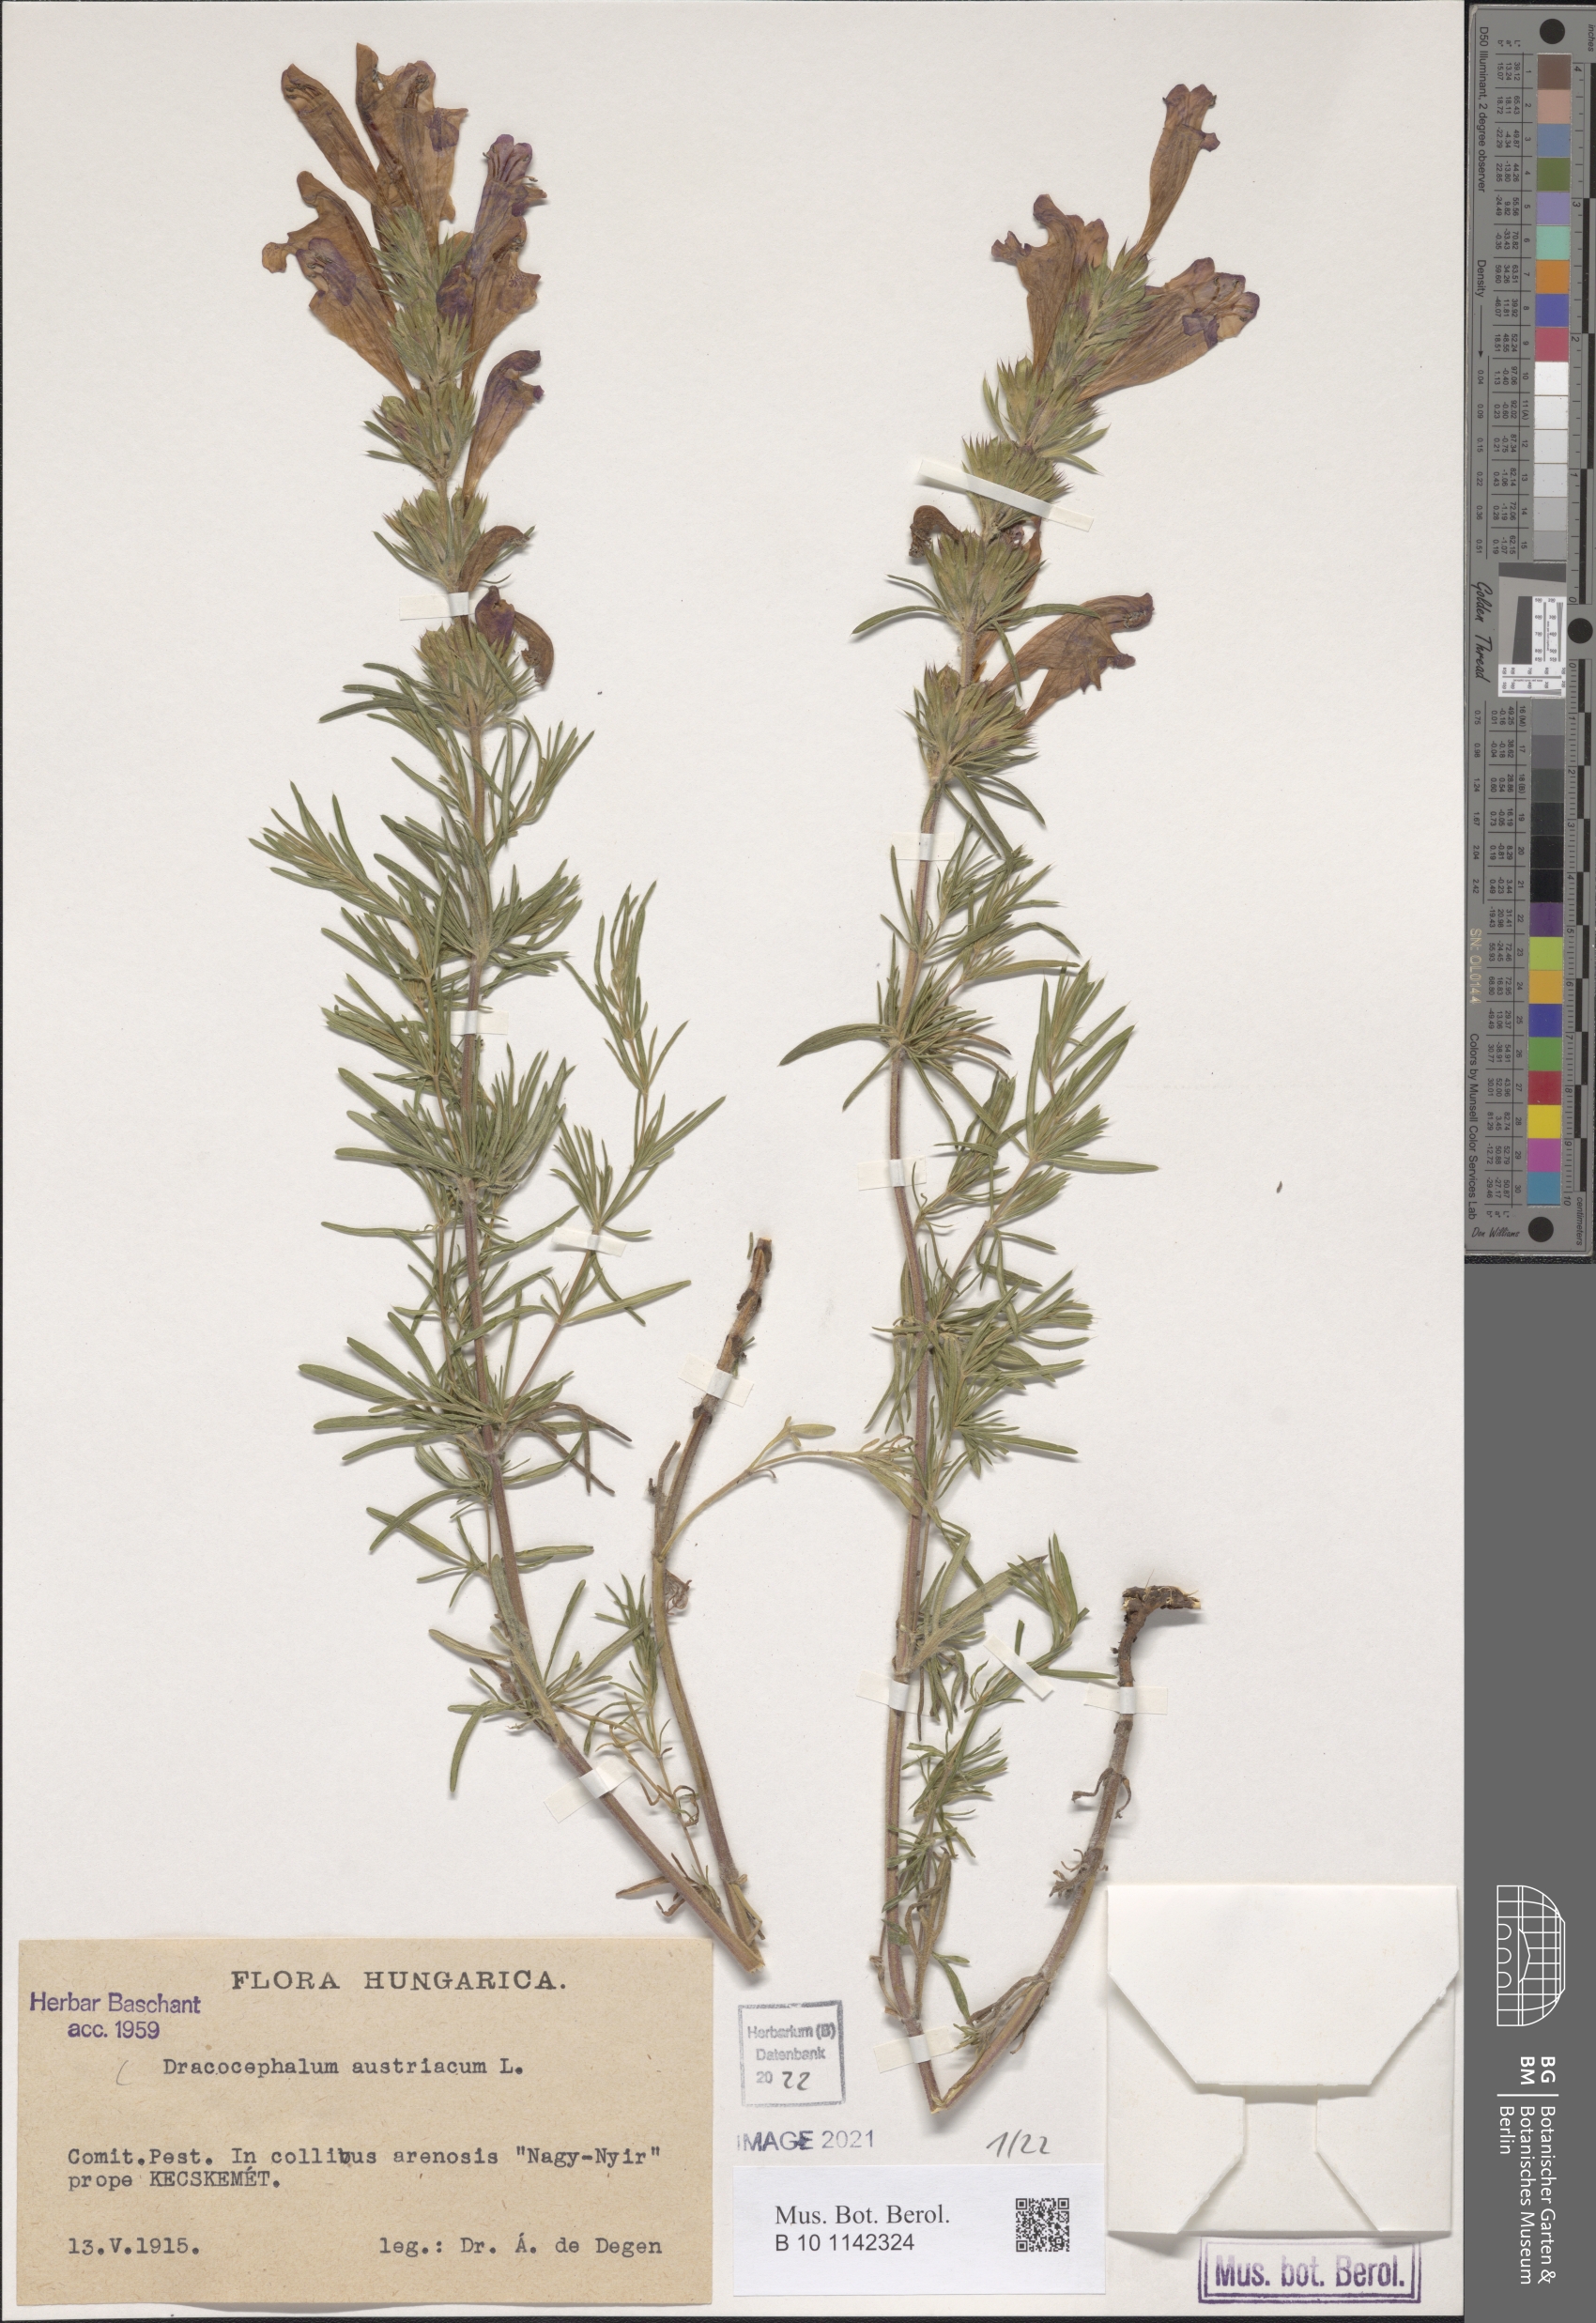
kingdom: Plantae
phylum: Tracheophyta
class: Magnoliopsida
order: Lamiales
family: Lamiaceae
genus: Dracocephalum
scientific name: Dracocephalum austriacum
